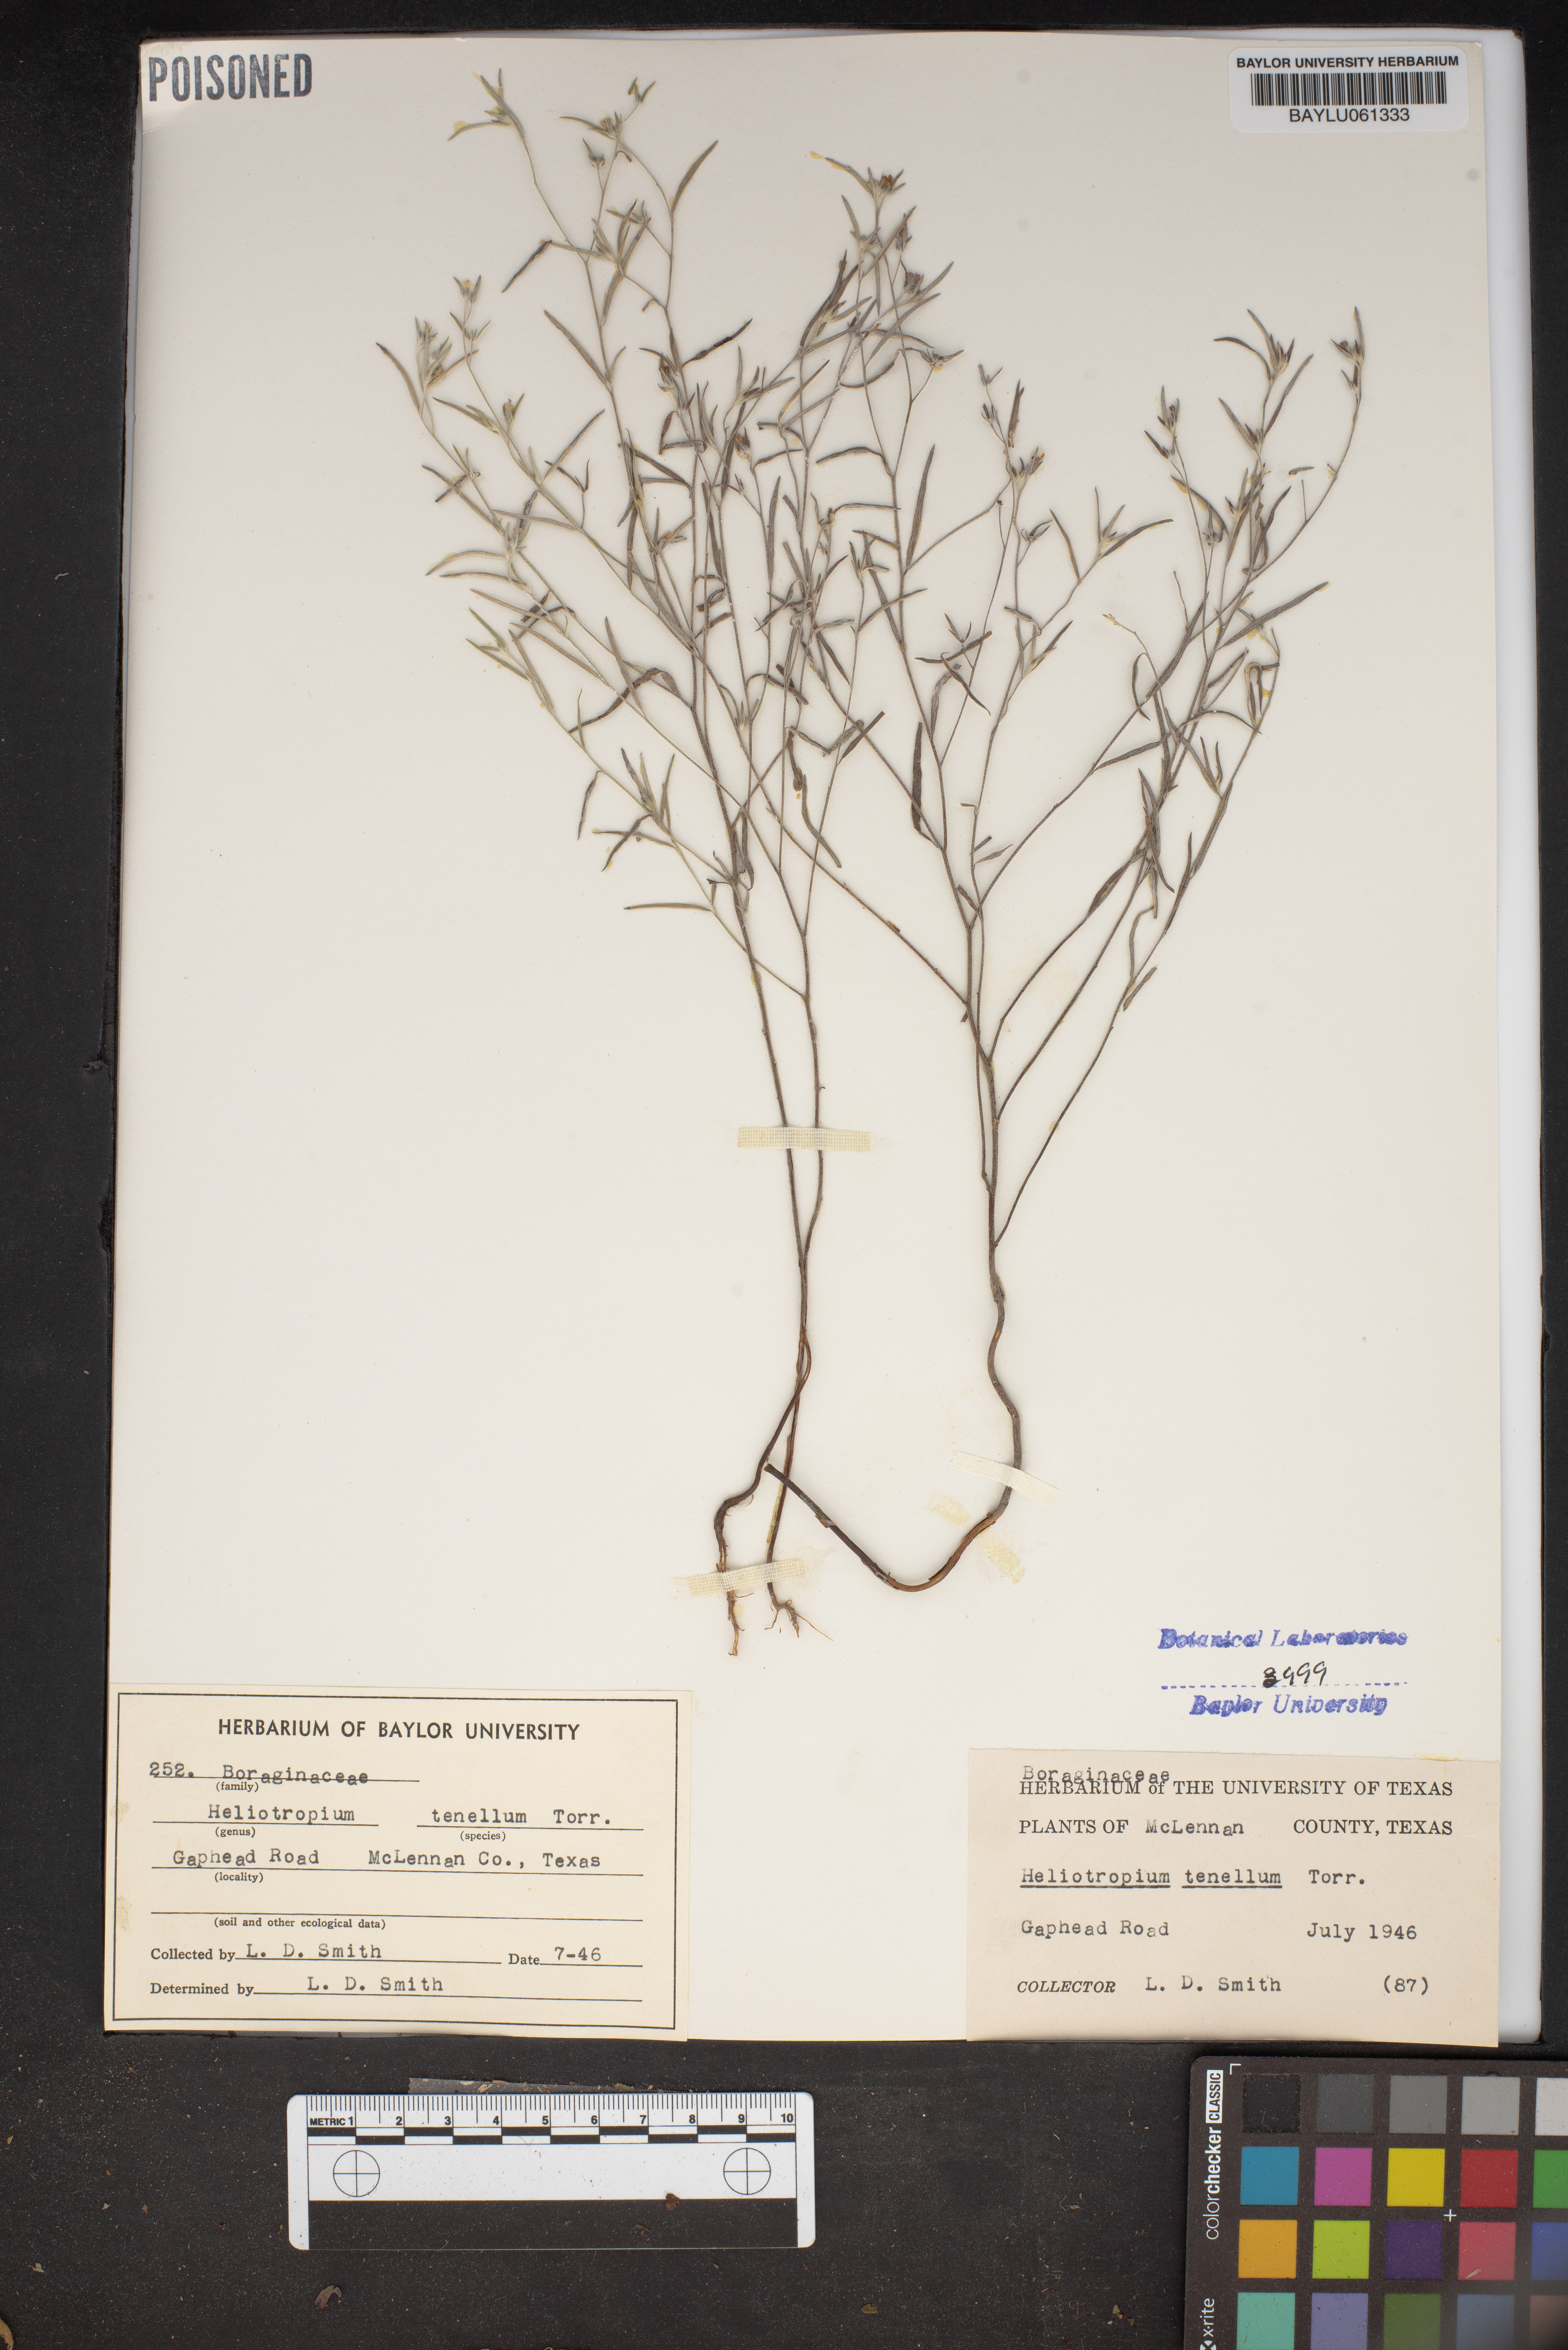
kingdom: Plantae
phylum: Tracheophyta
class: Magnoliopsida
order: Boraginales
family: Heliotropiaceae
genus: Euploca
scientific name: Euploca tenella
